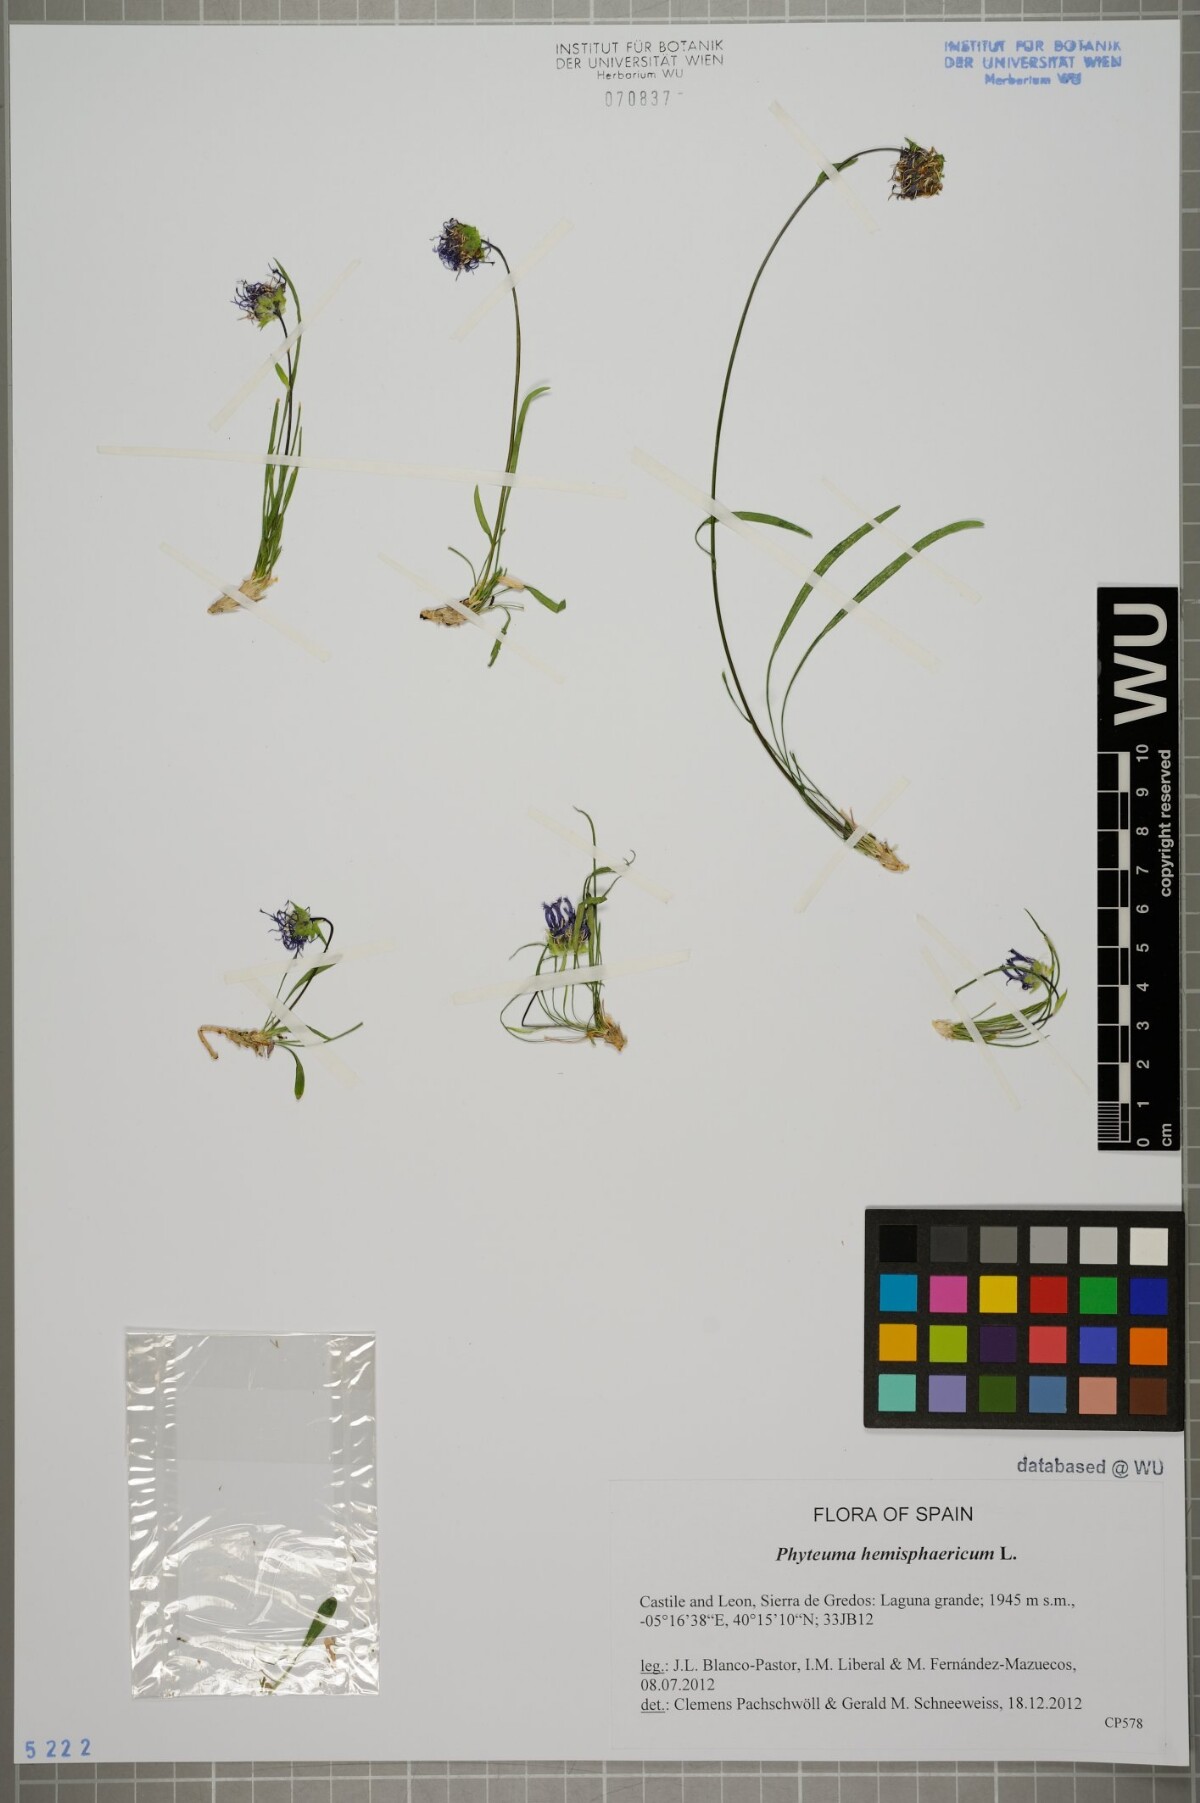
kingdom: Plantae
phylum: Tracheophyta
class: Magnoliopsida
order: Asterales
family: Campanulaceae
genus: Phyteuma
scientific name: Phyteuma hemisphaericum
